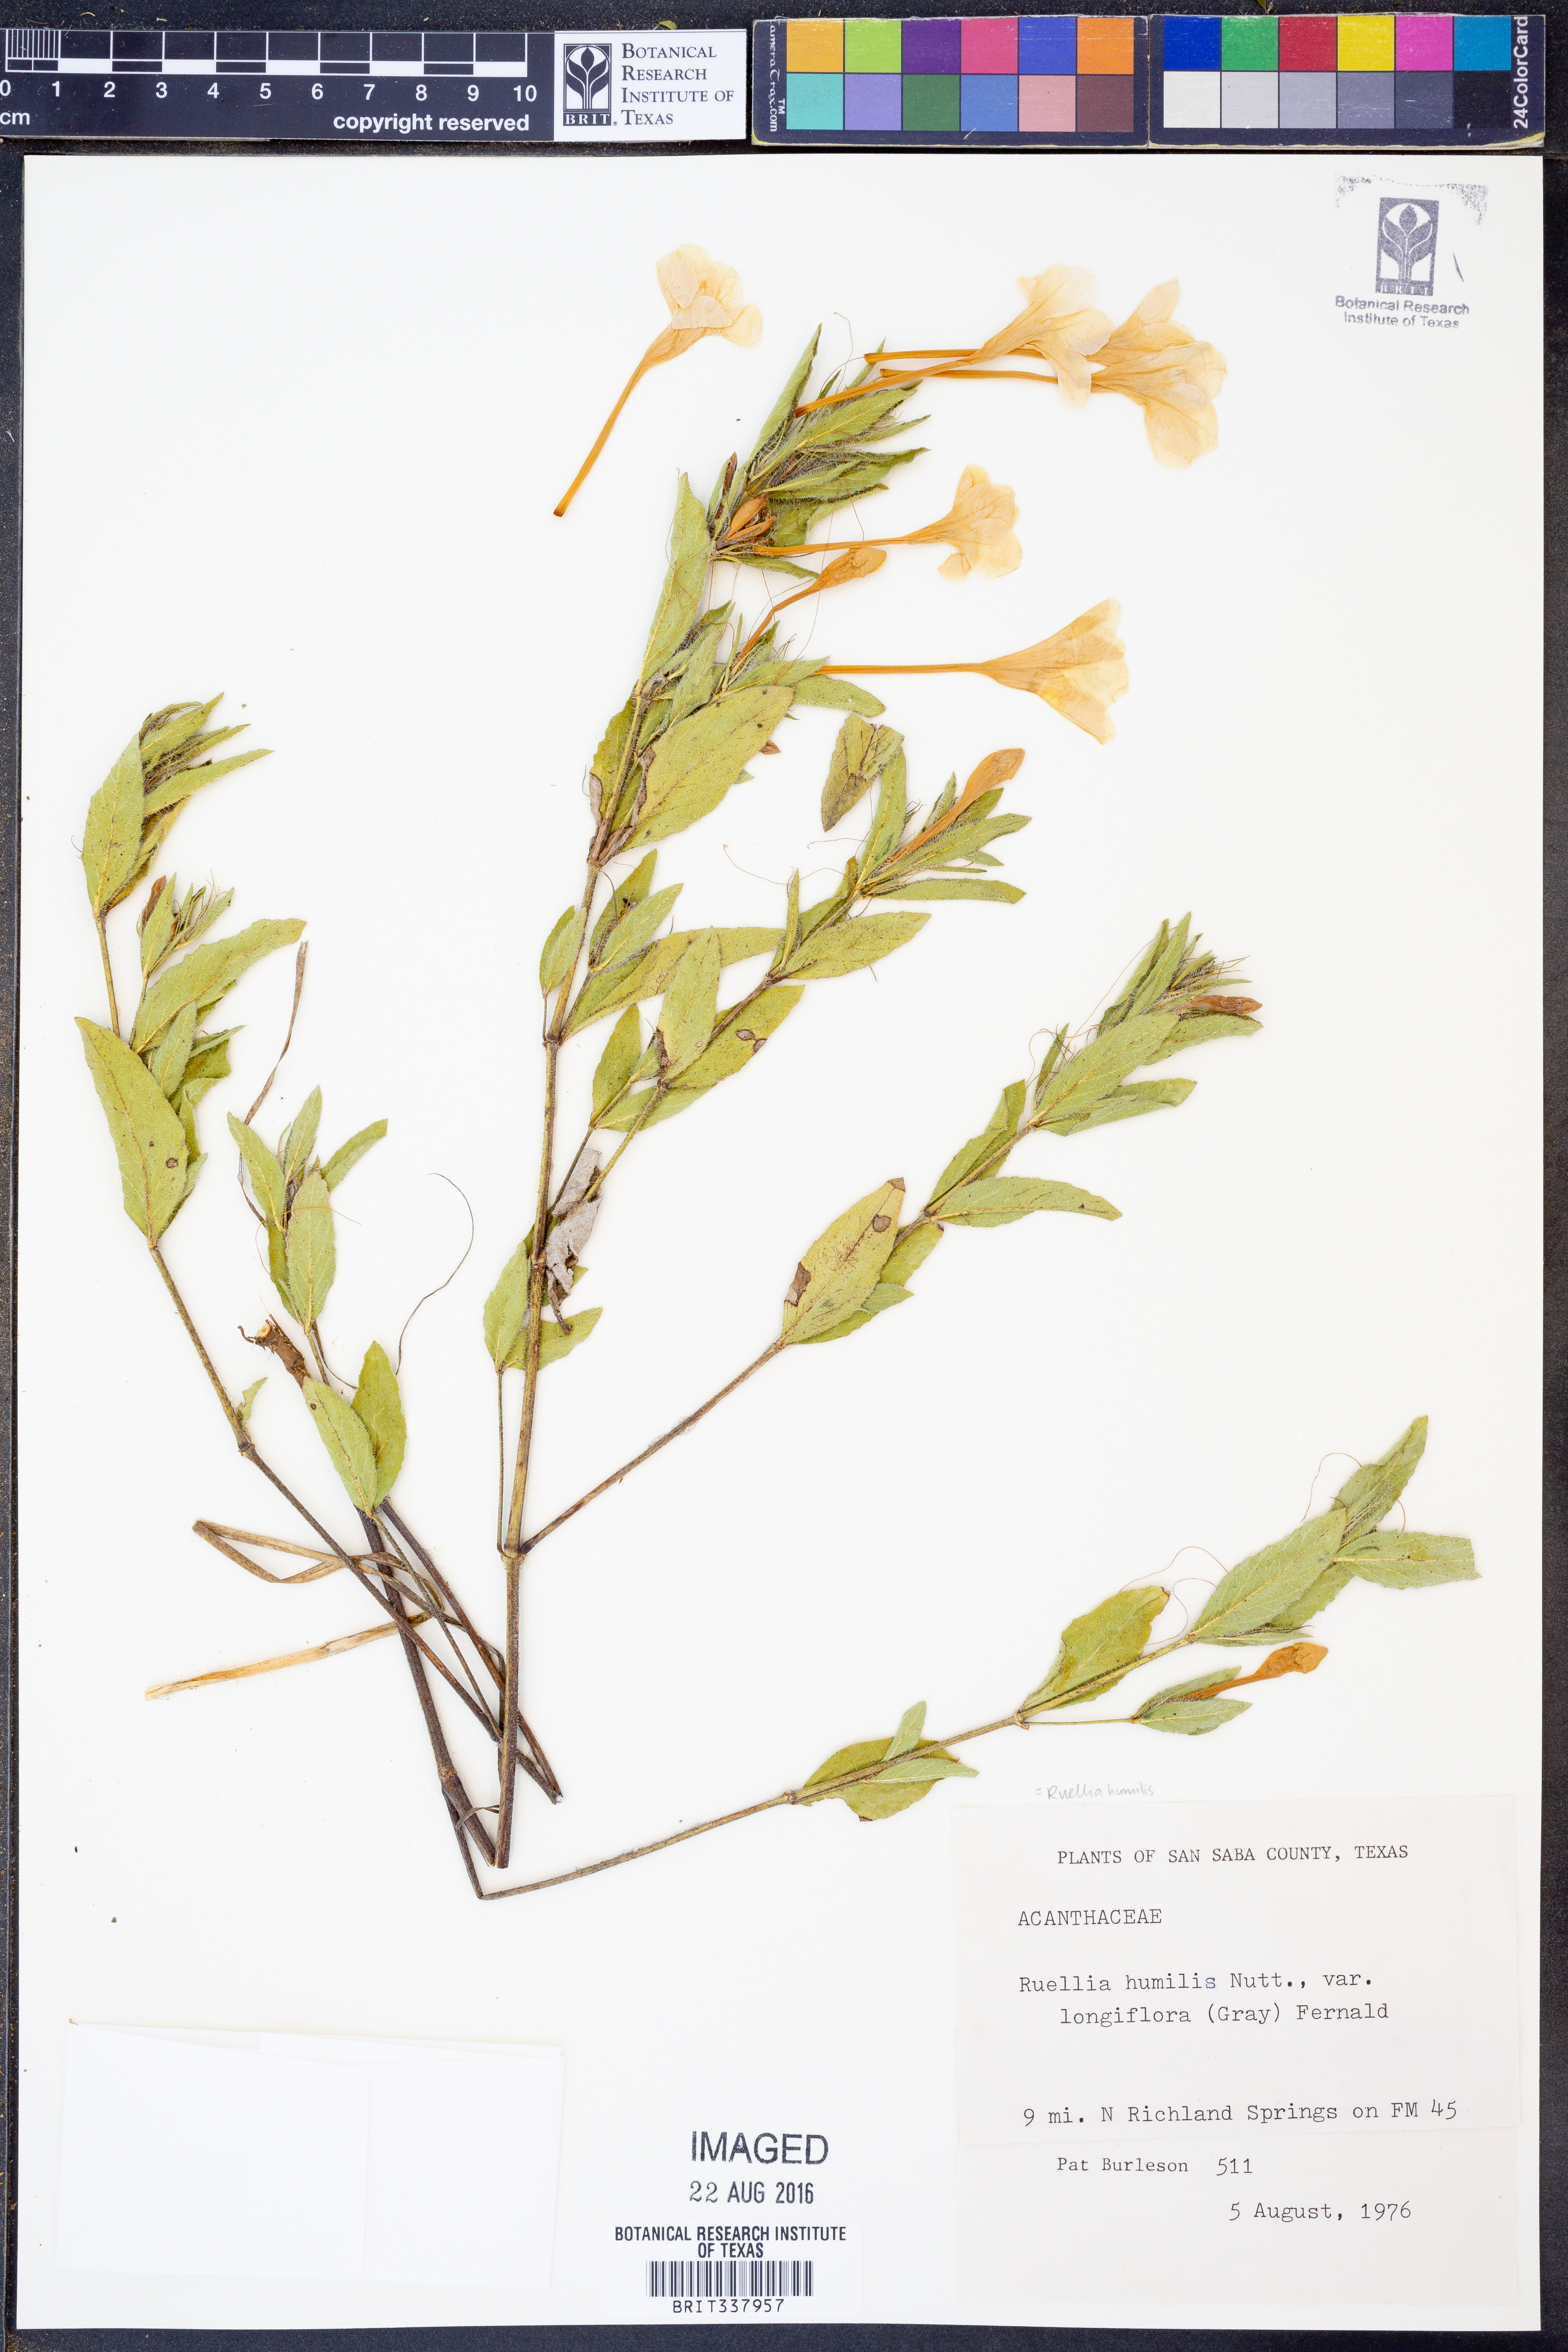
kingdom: Plantae
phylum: Tracheophyta
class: Magnoliopsida
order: Lamiales
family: Acanthaceae
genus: Ruellia
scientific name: Ruellia humilis
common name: Fringe-leaf ruellia
